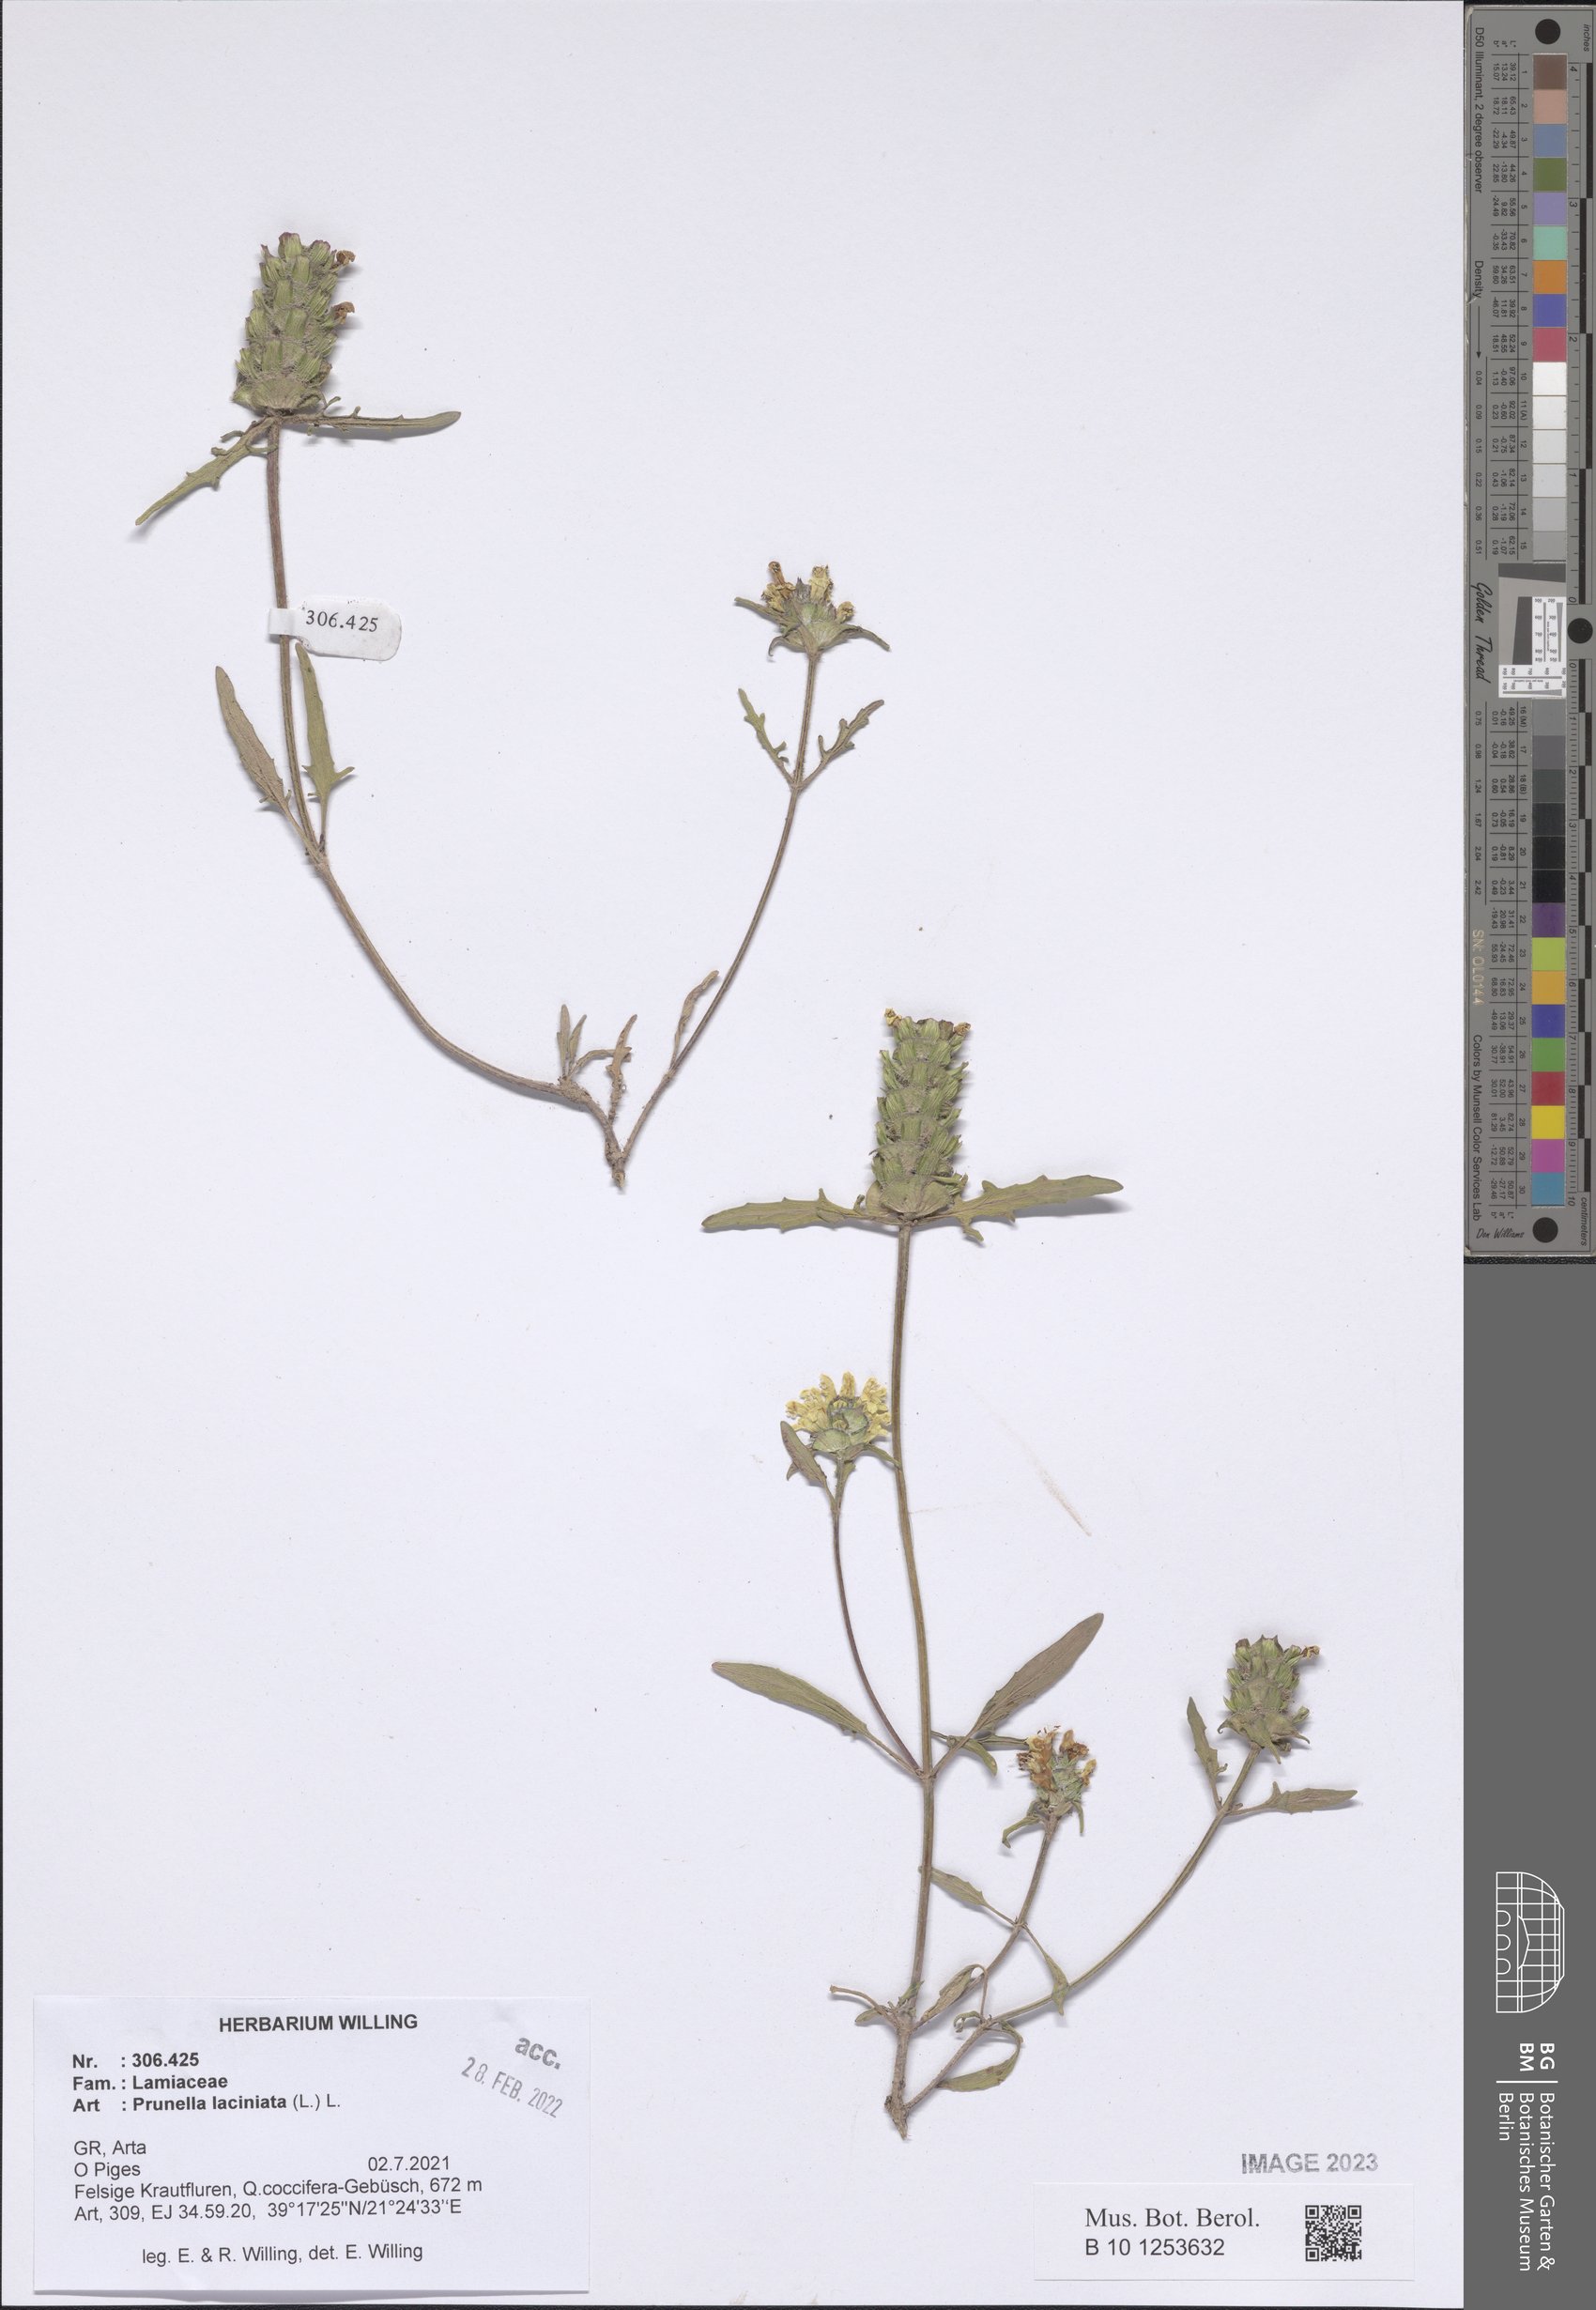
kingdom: Plantae
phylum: Tracheophyta
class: Magnoliopsida
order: Lamiales
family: Lamiaceae
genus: Prunella
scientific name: Prunella laciniata
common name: Cut-leaved selfheal
